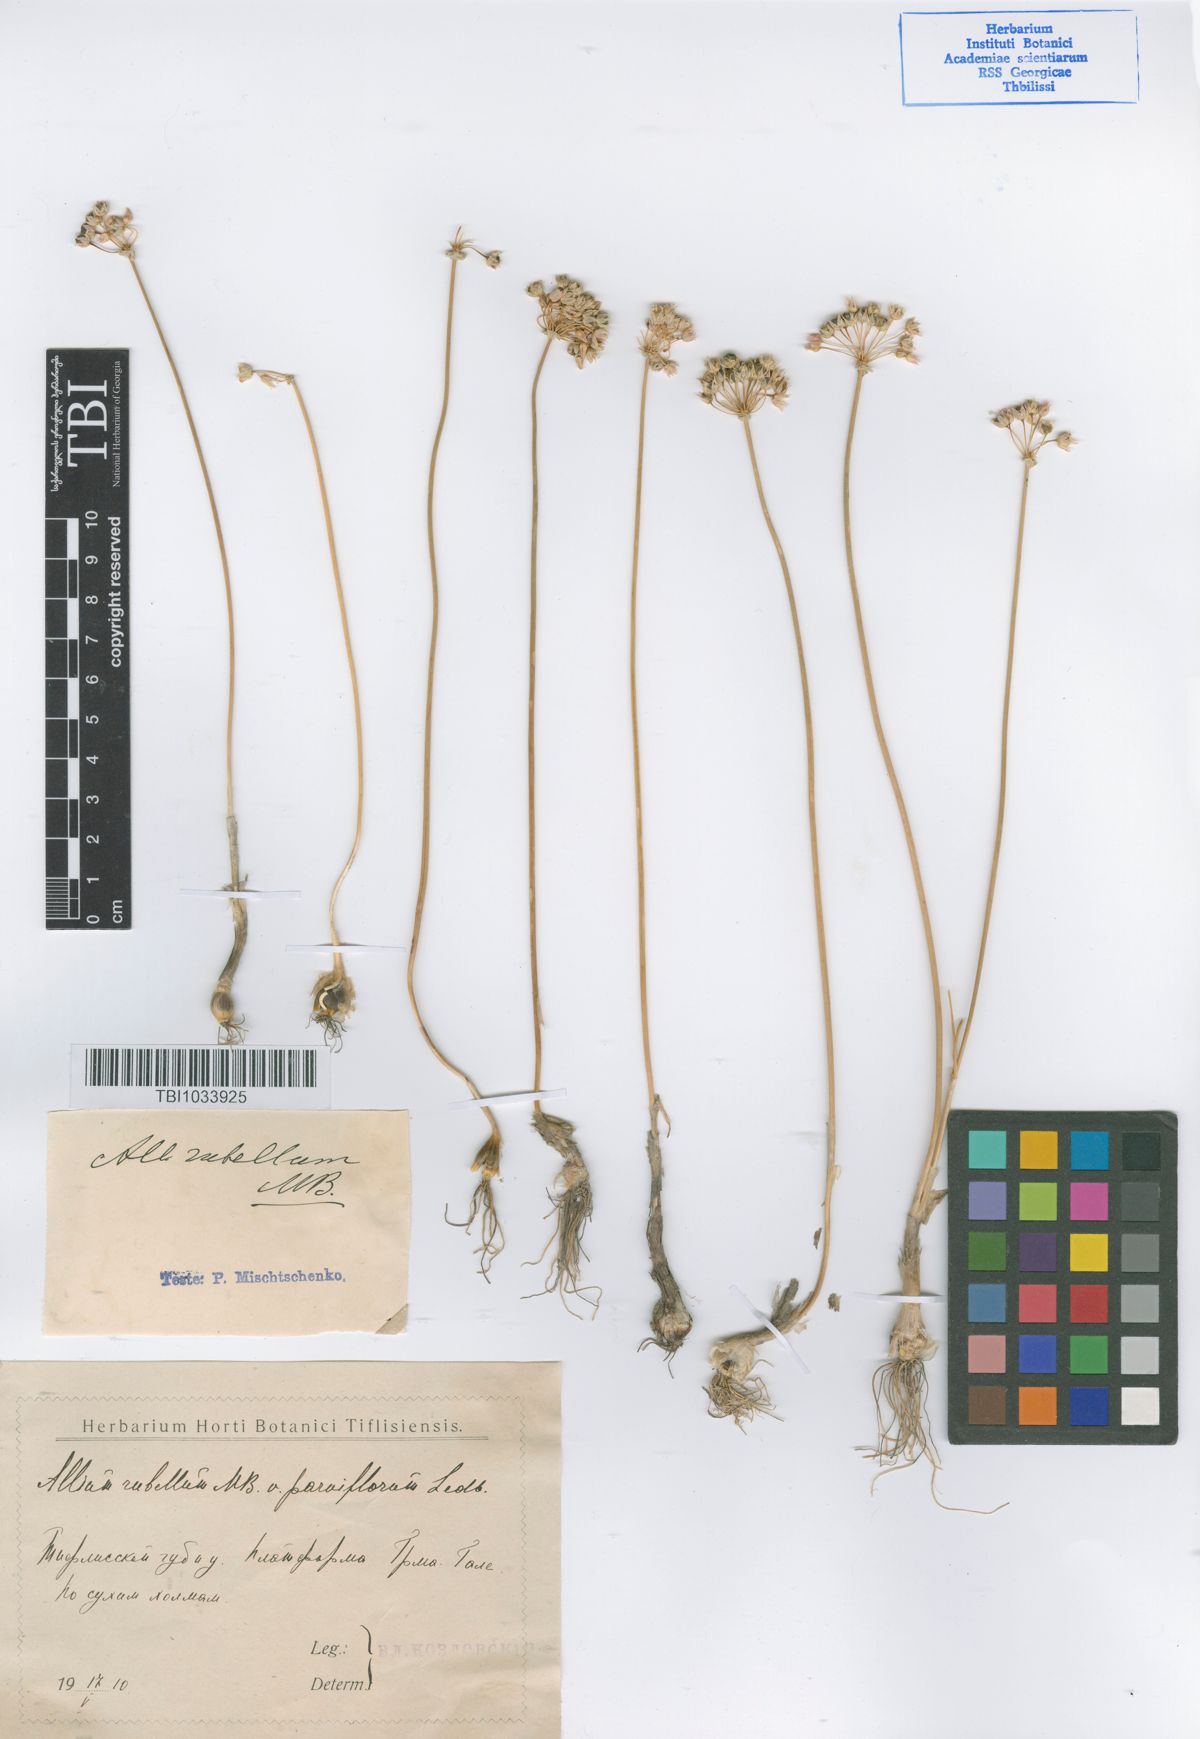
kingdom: Plantae
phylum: Tracheophyta
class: Liliopsida
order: Asparagales
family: Amaryllidaceae
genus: Allium
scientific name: Allium rubellum
